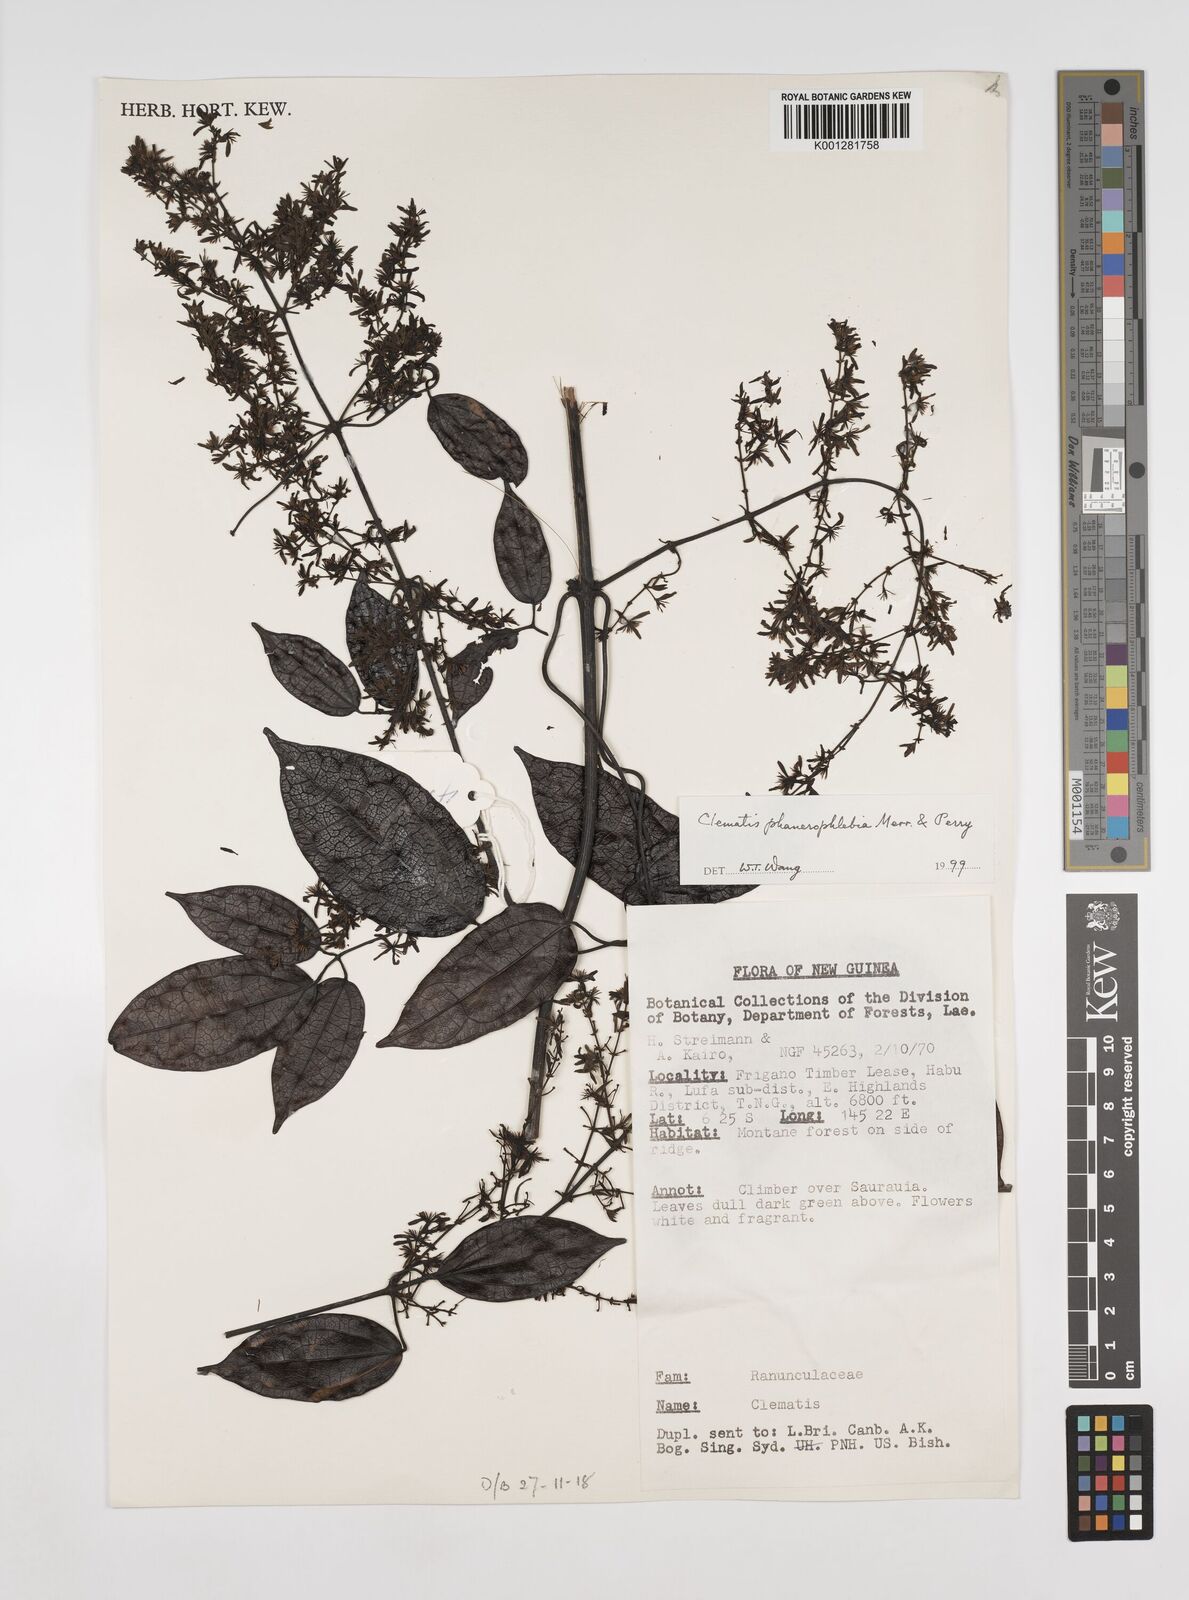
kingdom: Plantae
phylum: Tracheophyta
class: Magnoliopsida
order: Ranunculales
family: Ranunculaceae
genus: Clematis
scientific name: Clematis phanerophlebia
